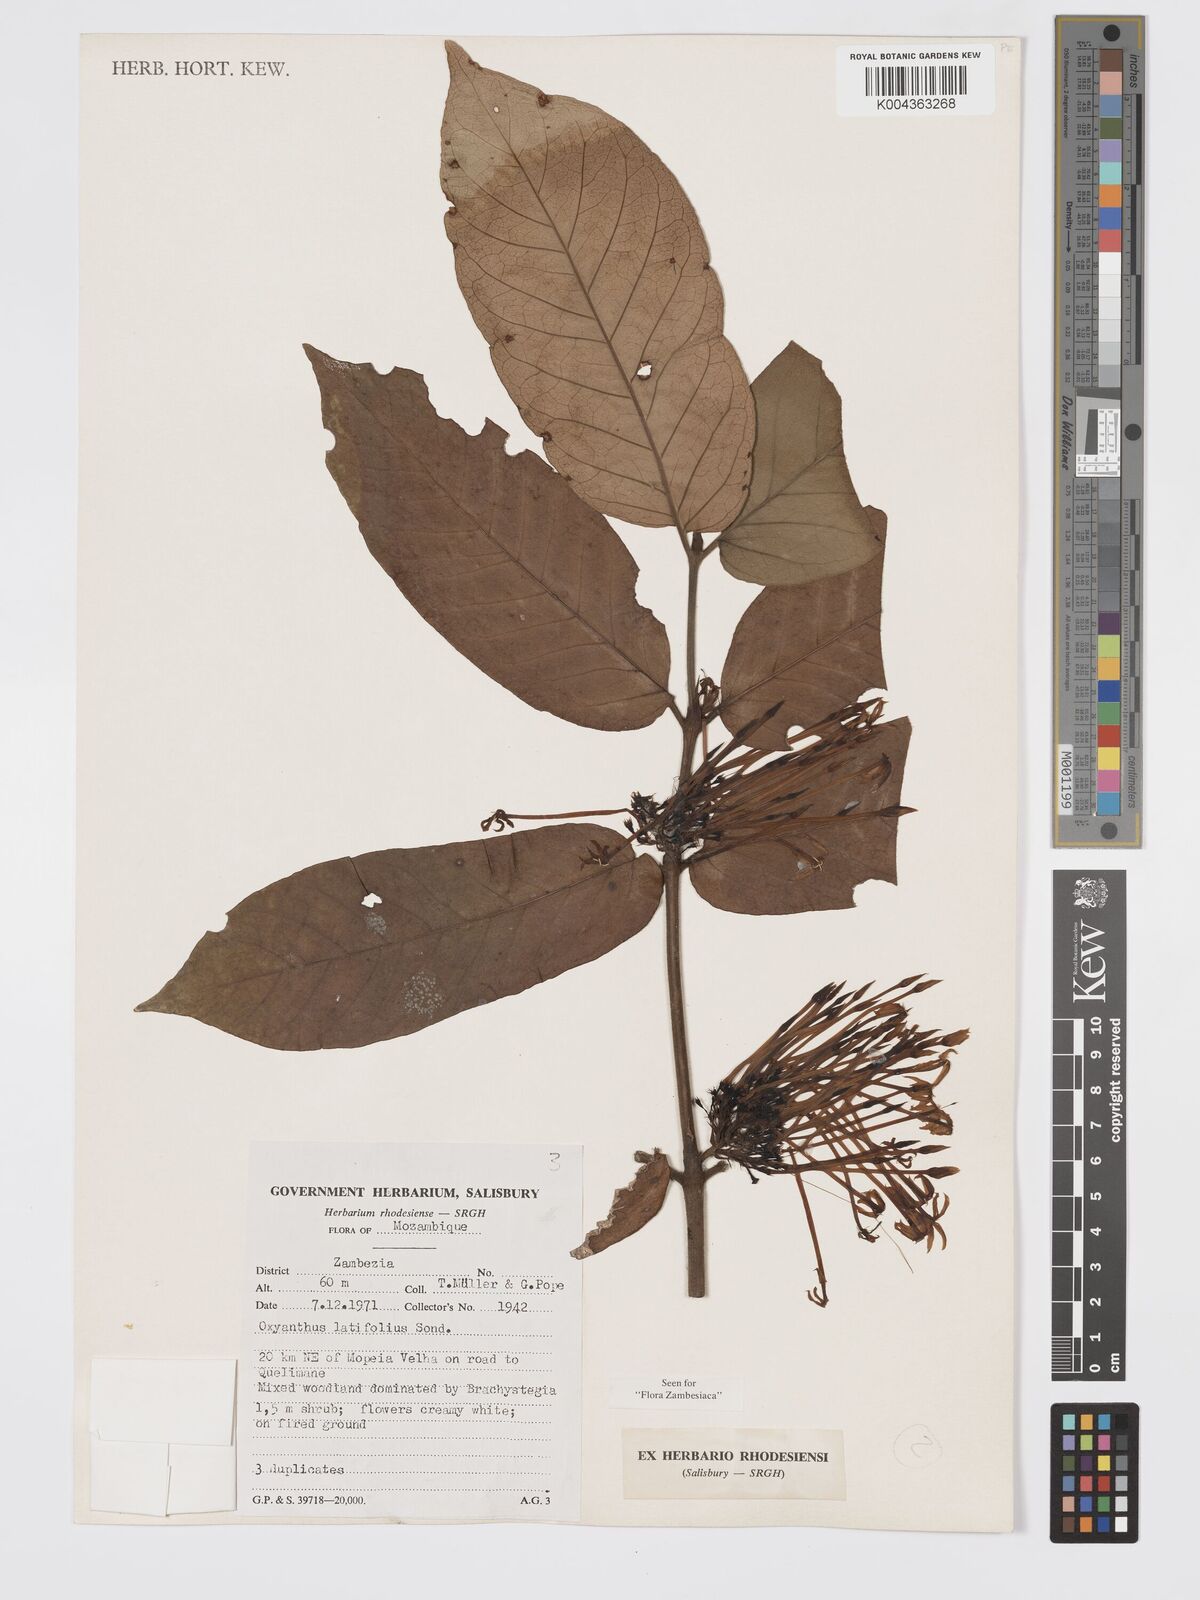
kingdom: Plantae
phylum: Tracheophyta
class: Magnoliopsida
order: Gentianales
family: Rubiaceae
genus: Oxyanthus
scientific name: Oxyanthus latifolius
